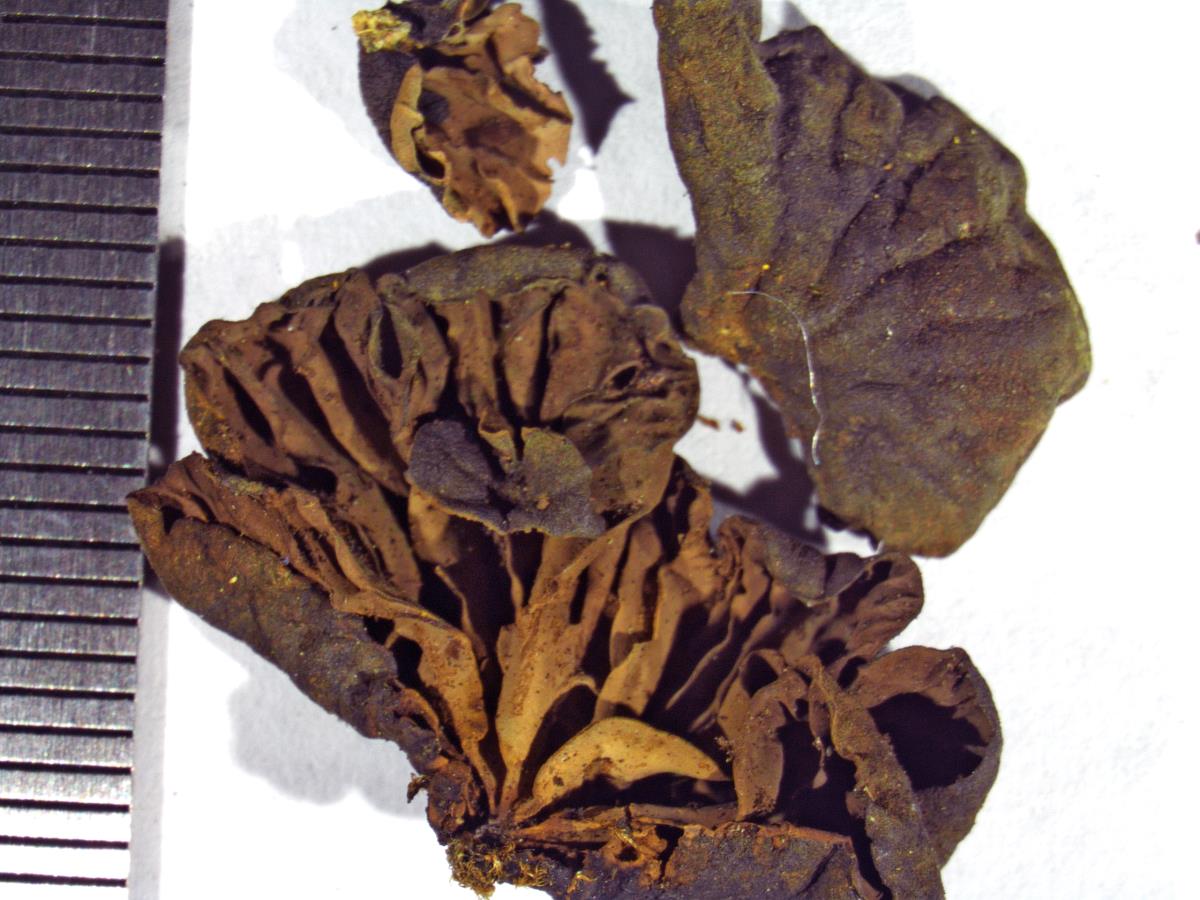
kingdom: Fungi
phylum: Basidiomycota
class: Agaricomycetes
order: Agaricales
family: Omphalotaceae
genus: Anthracophyllum
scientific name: Anthracophyllum glaucophyllum
